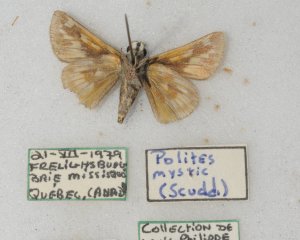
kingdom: Animalia
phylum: Arthropoda
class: Insecta
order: Lepidoptera
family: Hesperiidae
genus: Polites
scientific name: Polites
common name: Long Dash Skipper
